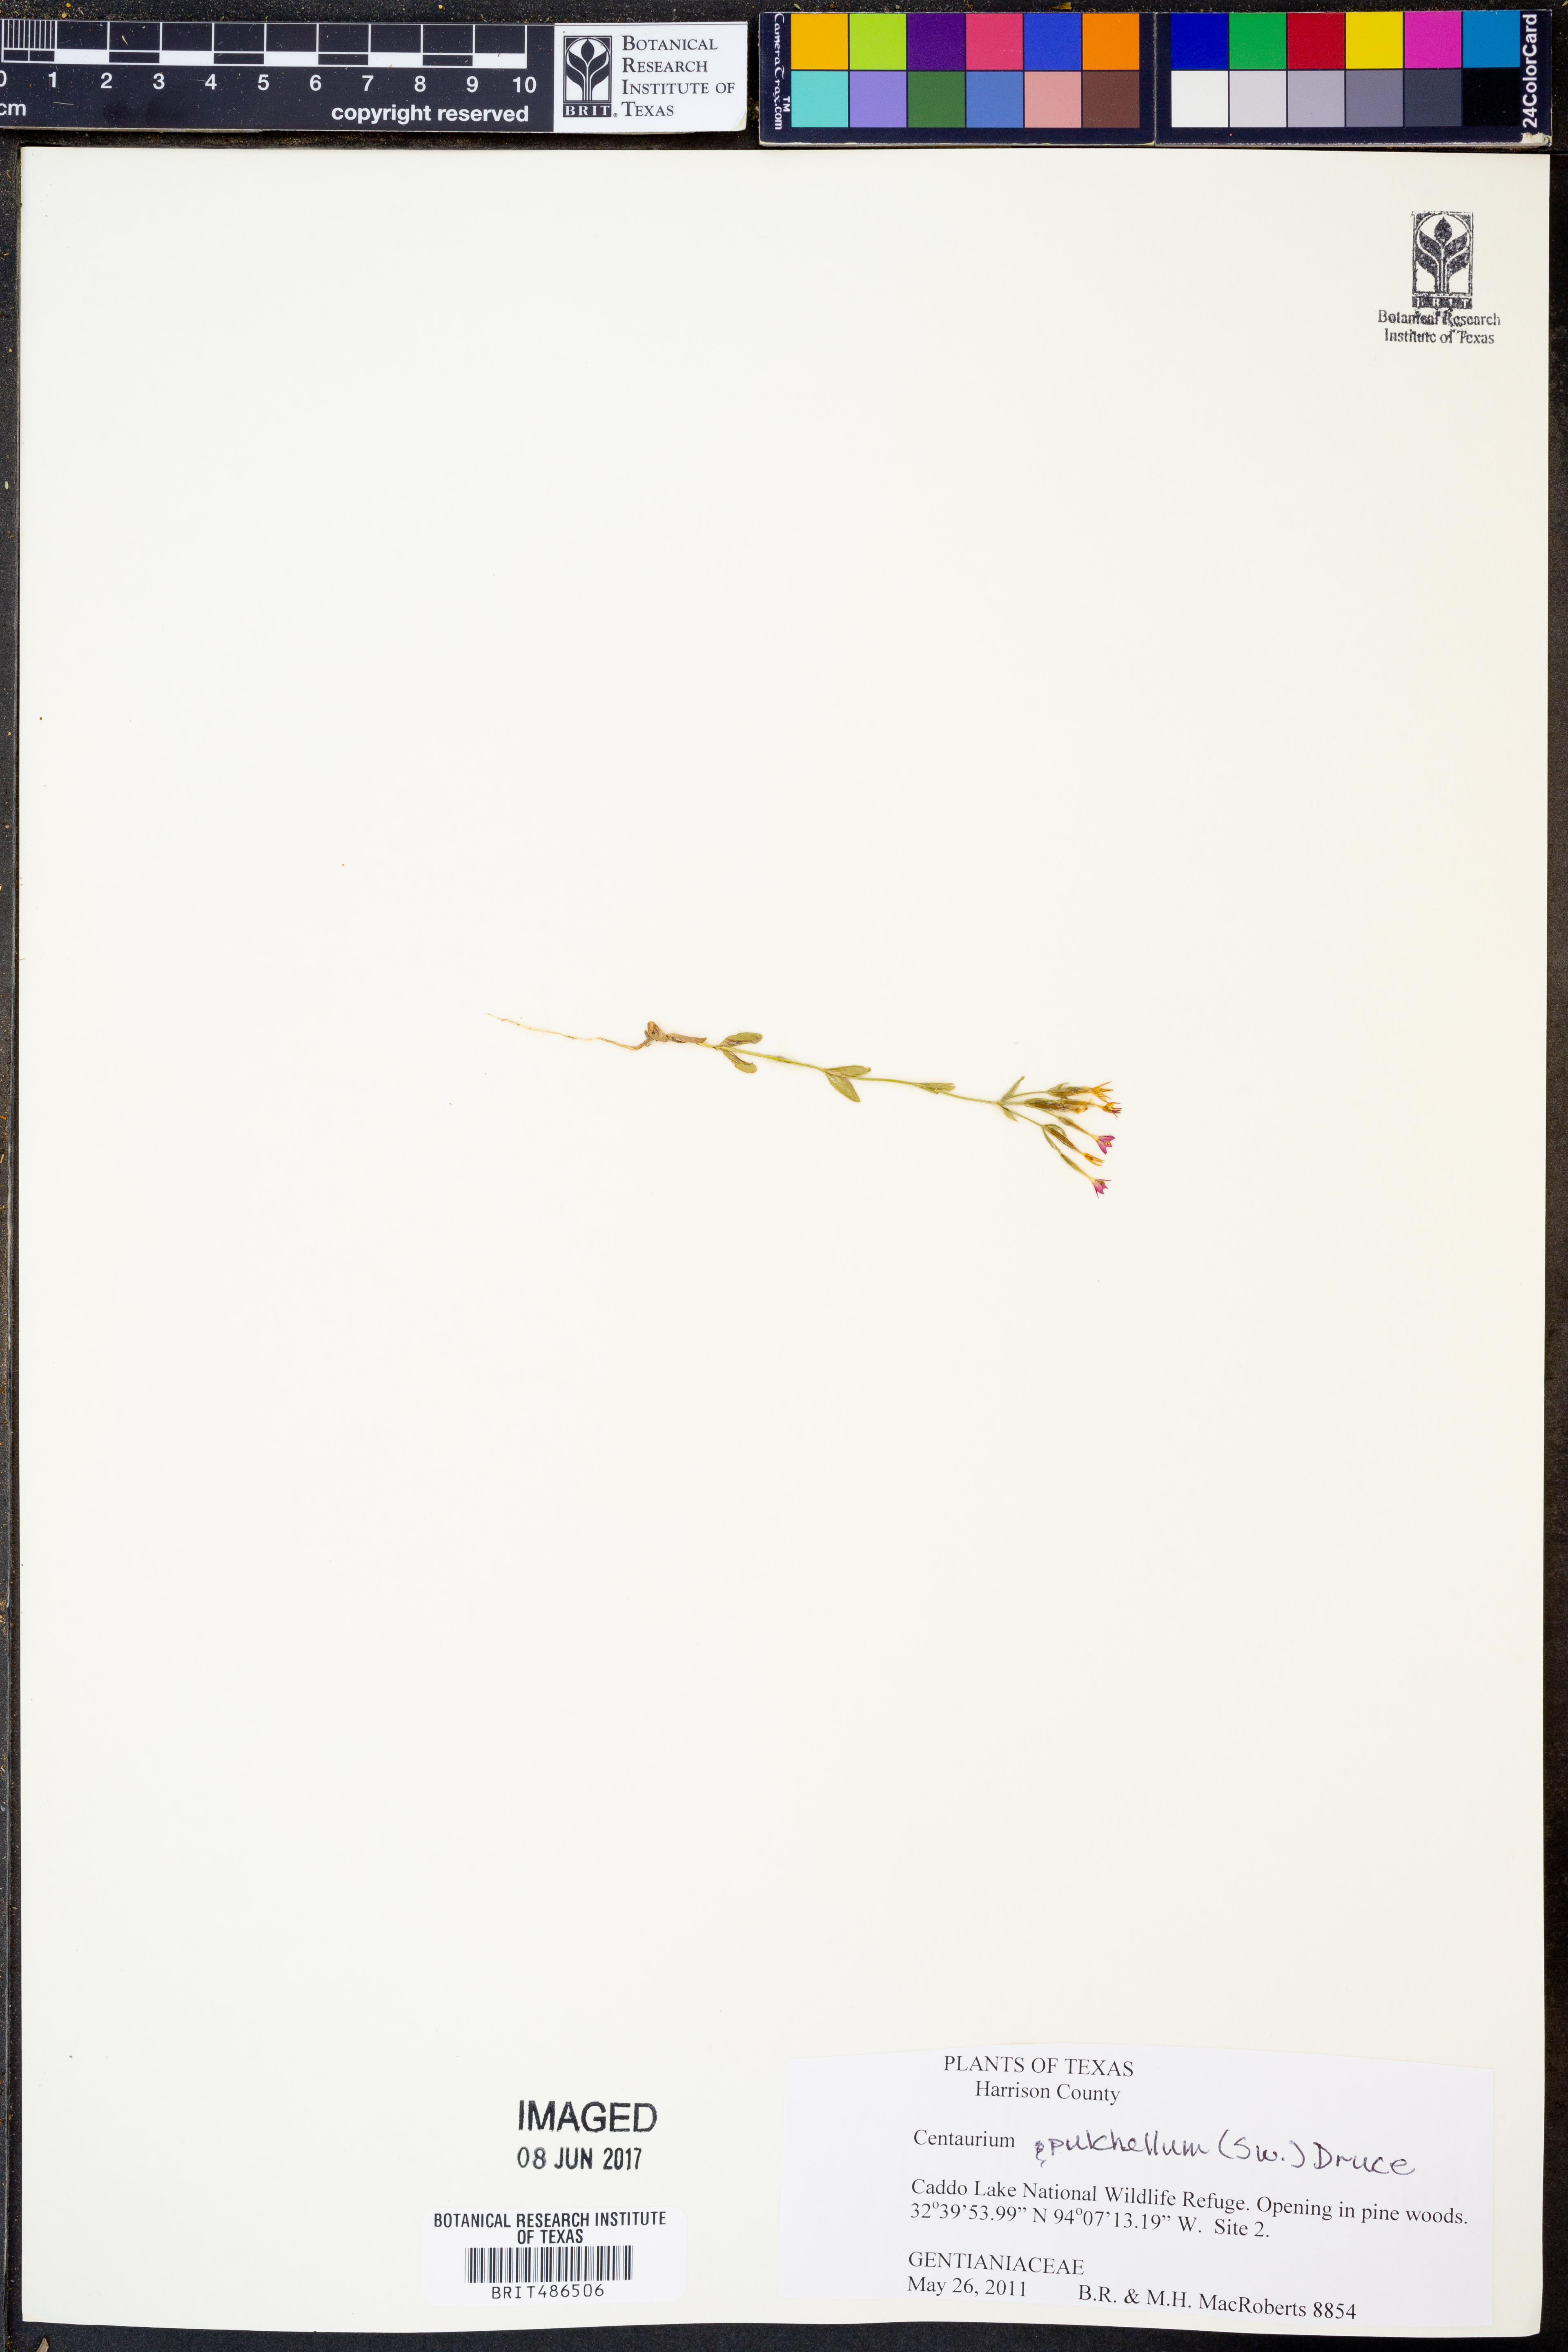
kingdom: Plantae
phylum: Tracheophyta
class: Magnoliopsida
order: Gentianales
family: Gentianaceae
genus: Centaurium
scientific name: Centaurium pulchellum
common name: Lesser centaury
